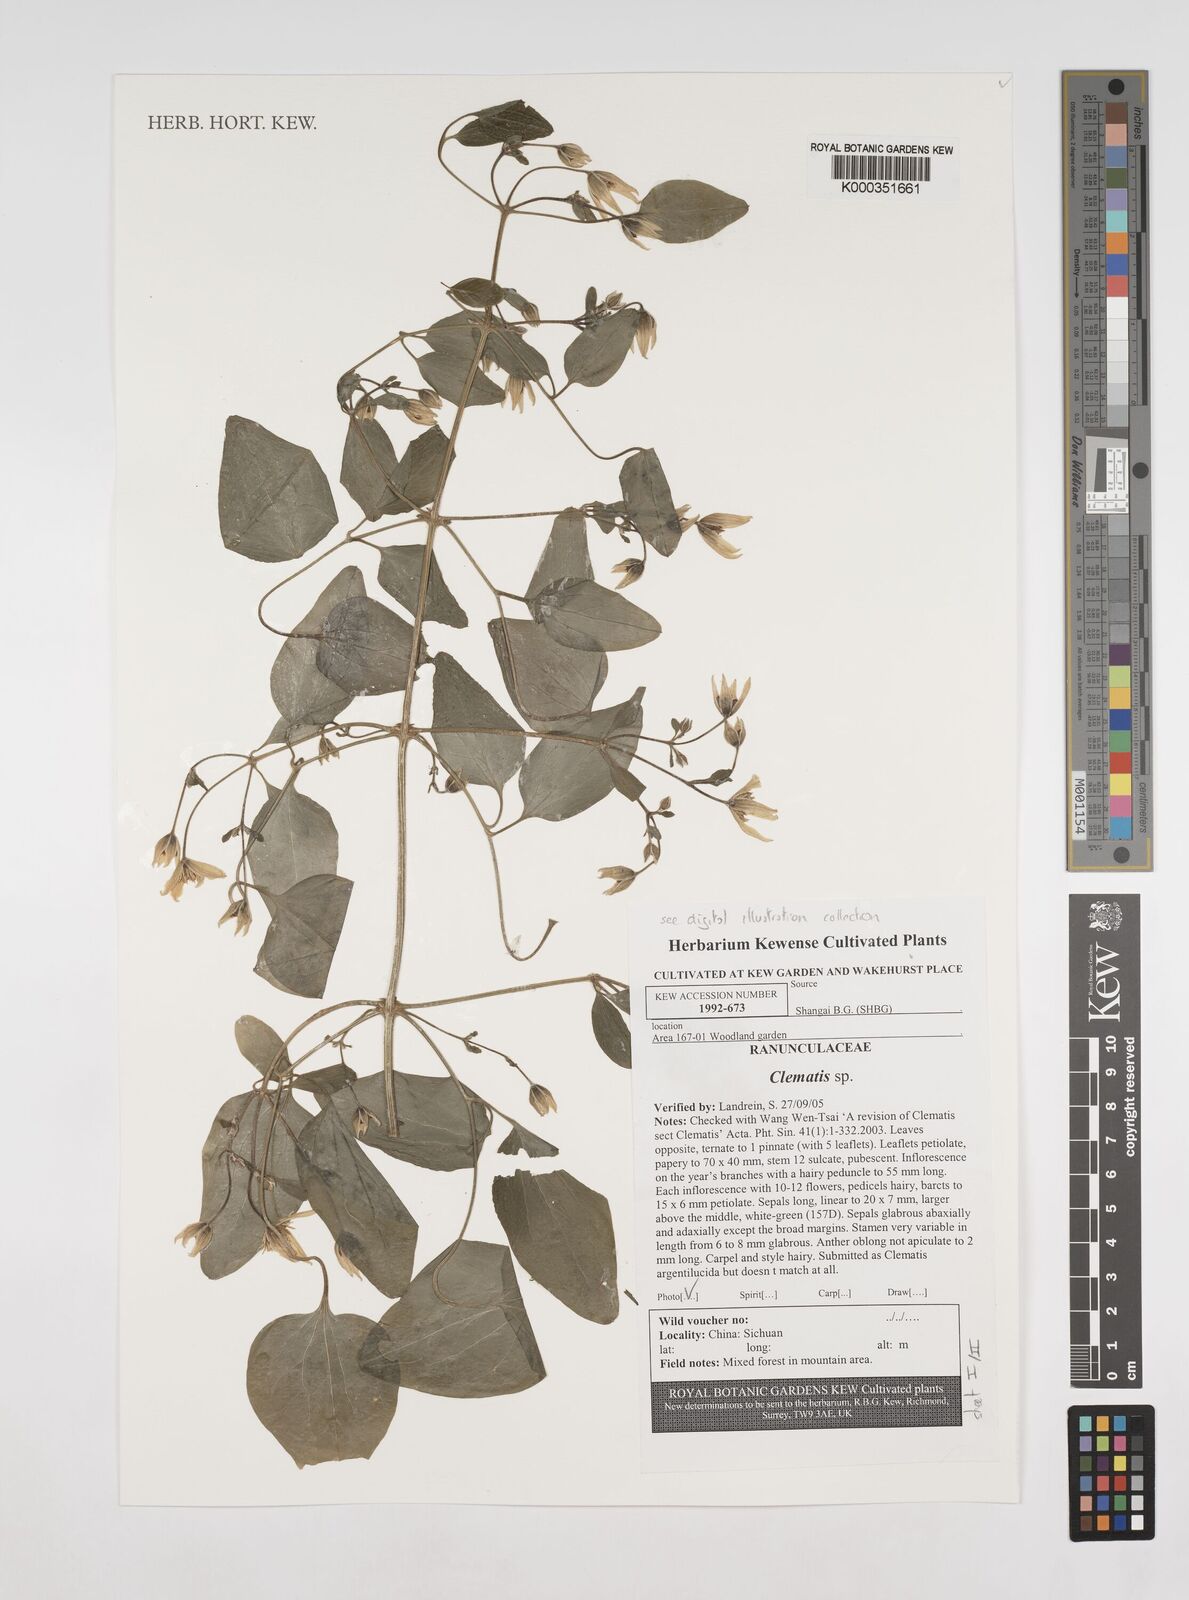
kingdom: Plantae
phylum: Tracheophyta
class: Magnoliopsida
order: Ranunculales
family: Ranunculaceae
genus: Clematis
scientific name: Clematis
